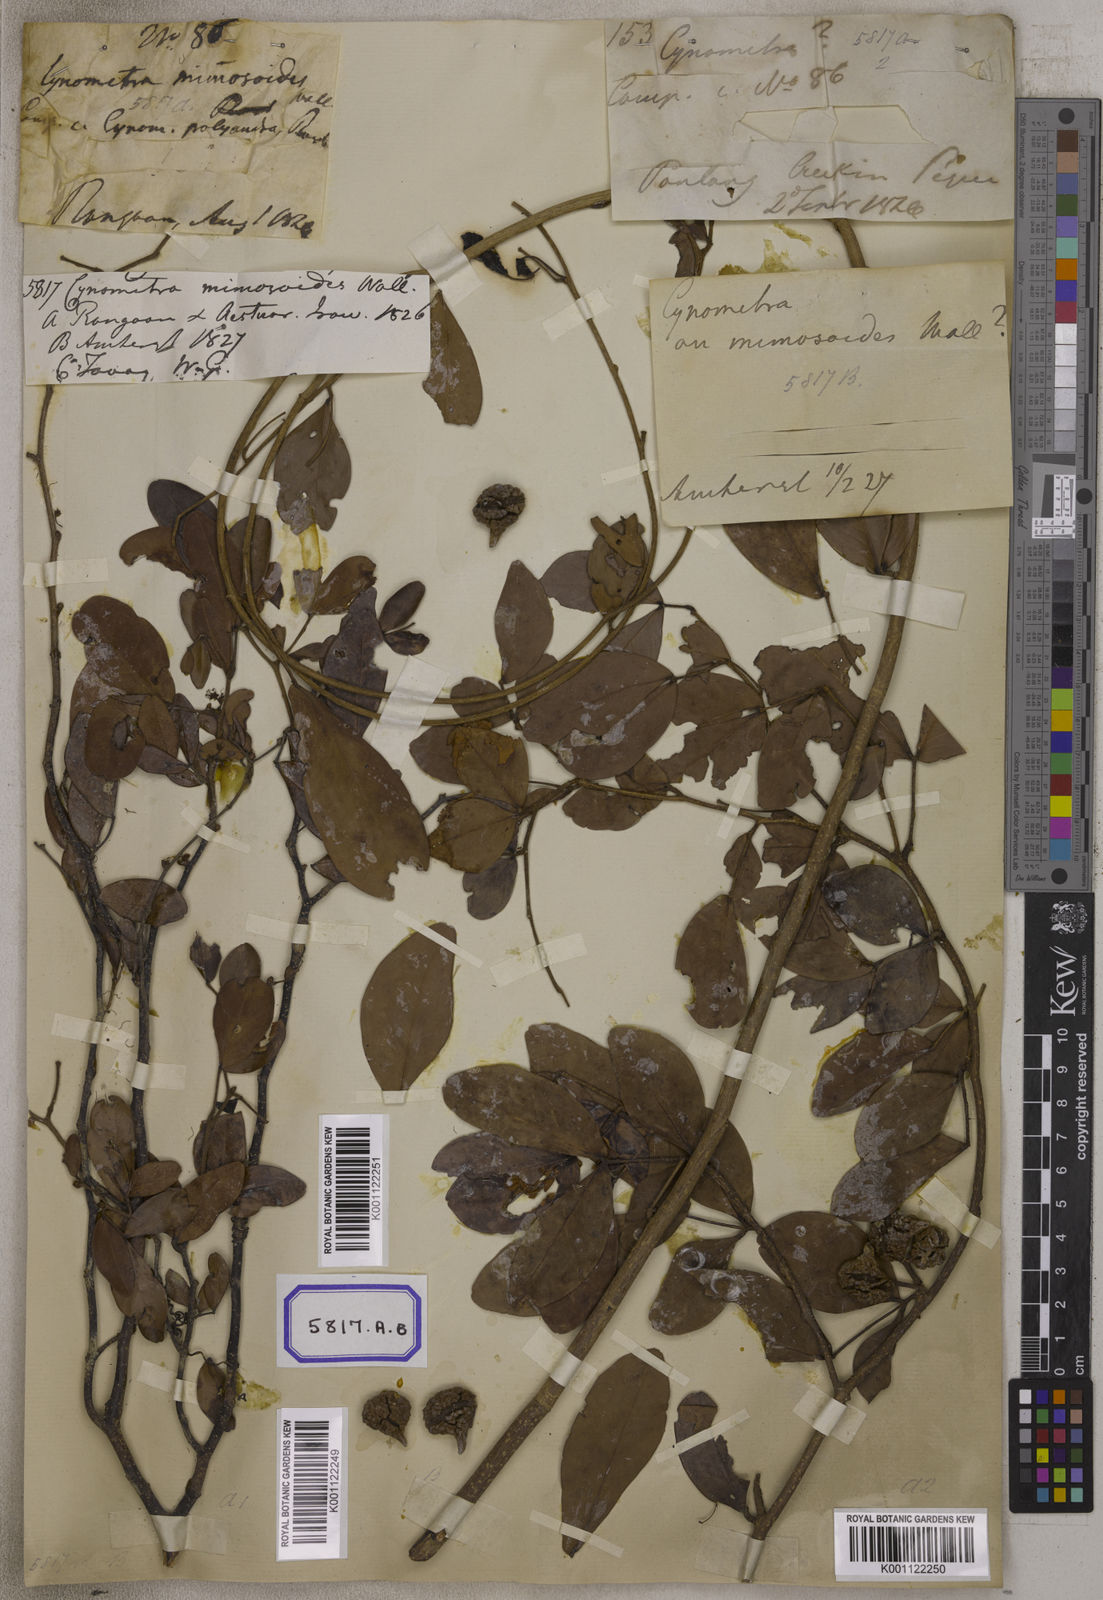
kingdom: Plantae
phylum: Tracheophyta
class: Magnoliopsida
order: Fabales
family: Fabaceae
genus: Cynometra
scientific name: Cynometra
